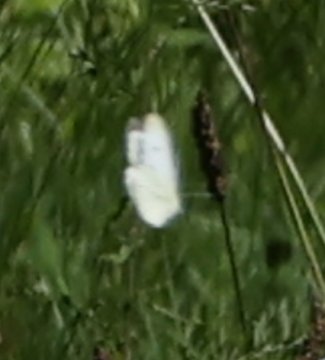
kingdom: Animalia
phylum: Arthropoda
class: Insecta
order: Lepidoptera
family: Pieridae
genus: Pieris
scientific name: Pieris rapae
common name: Cabbage White
